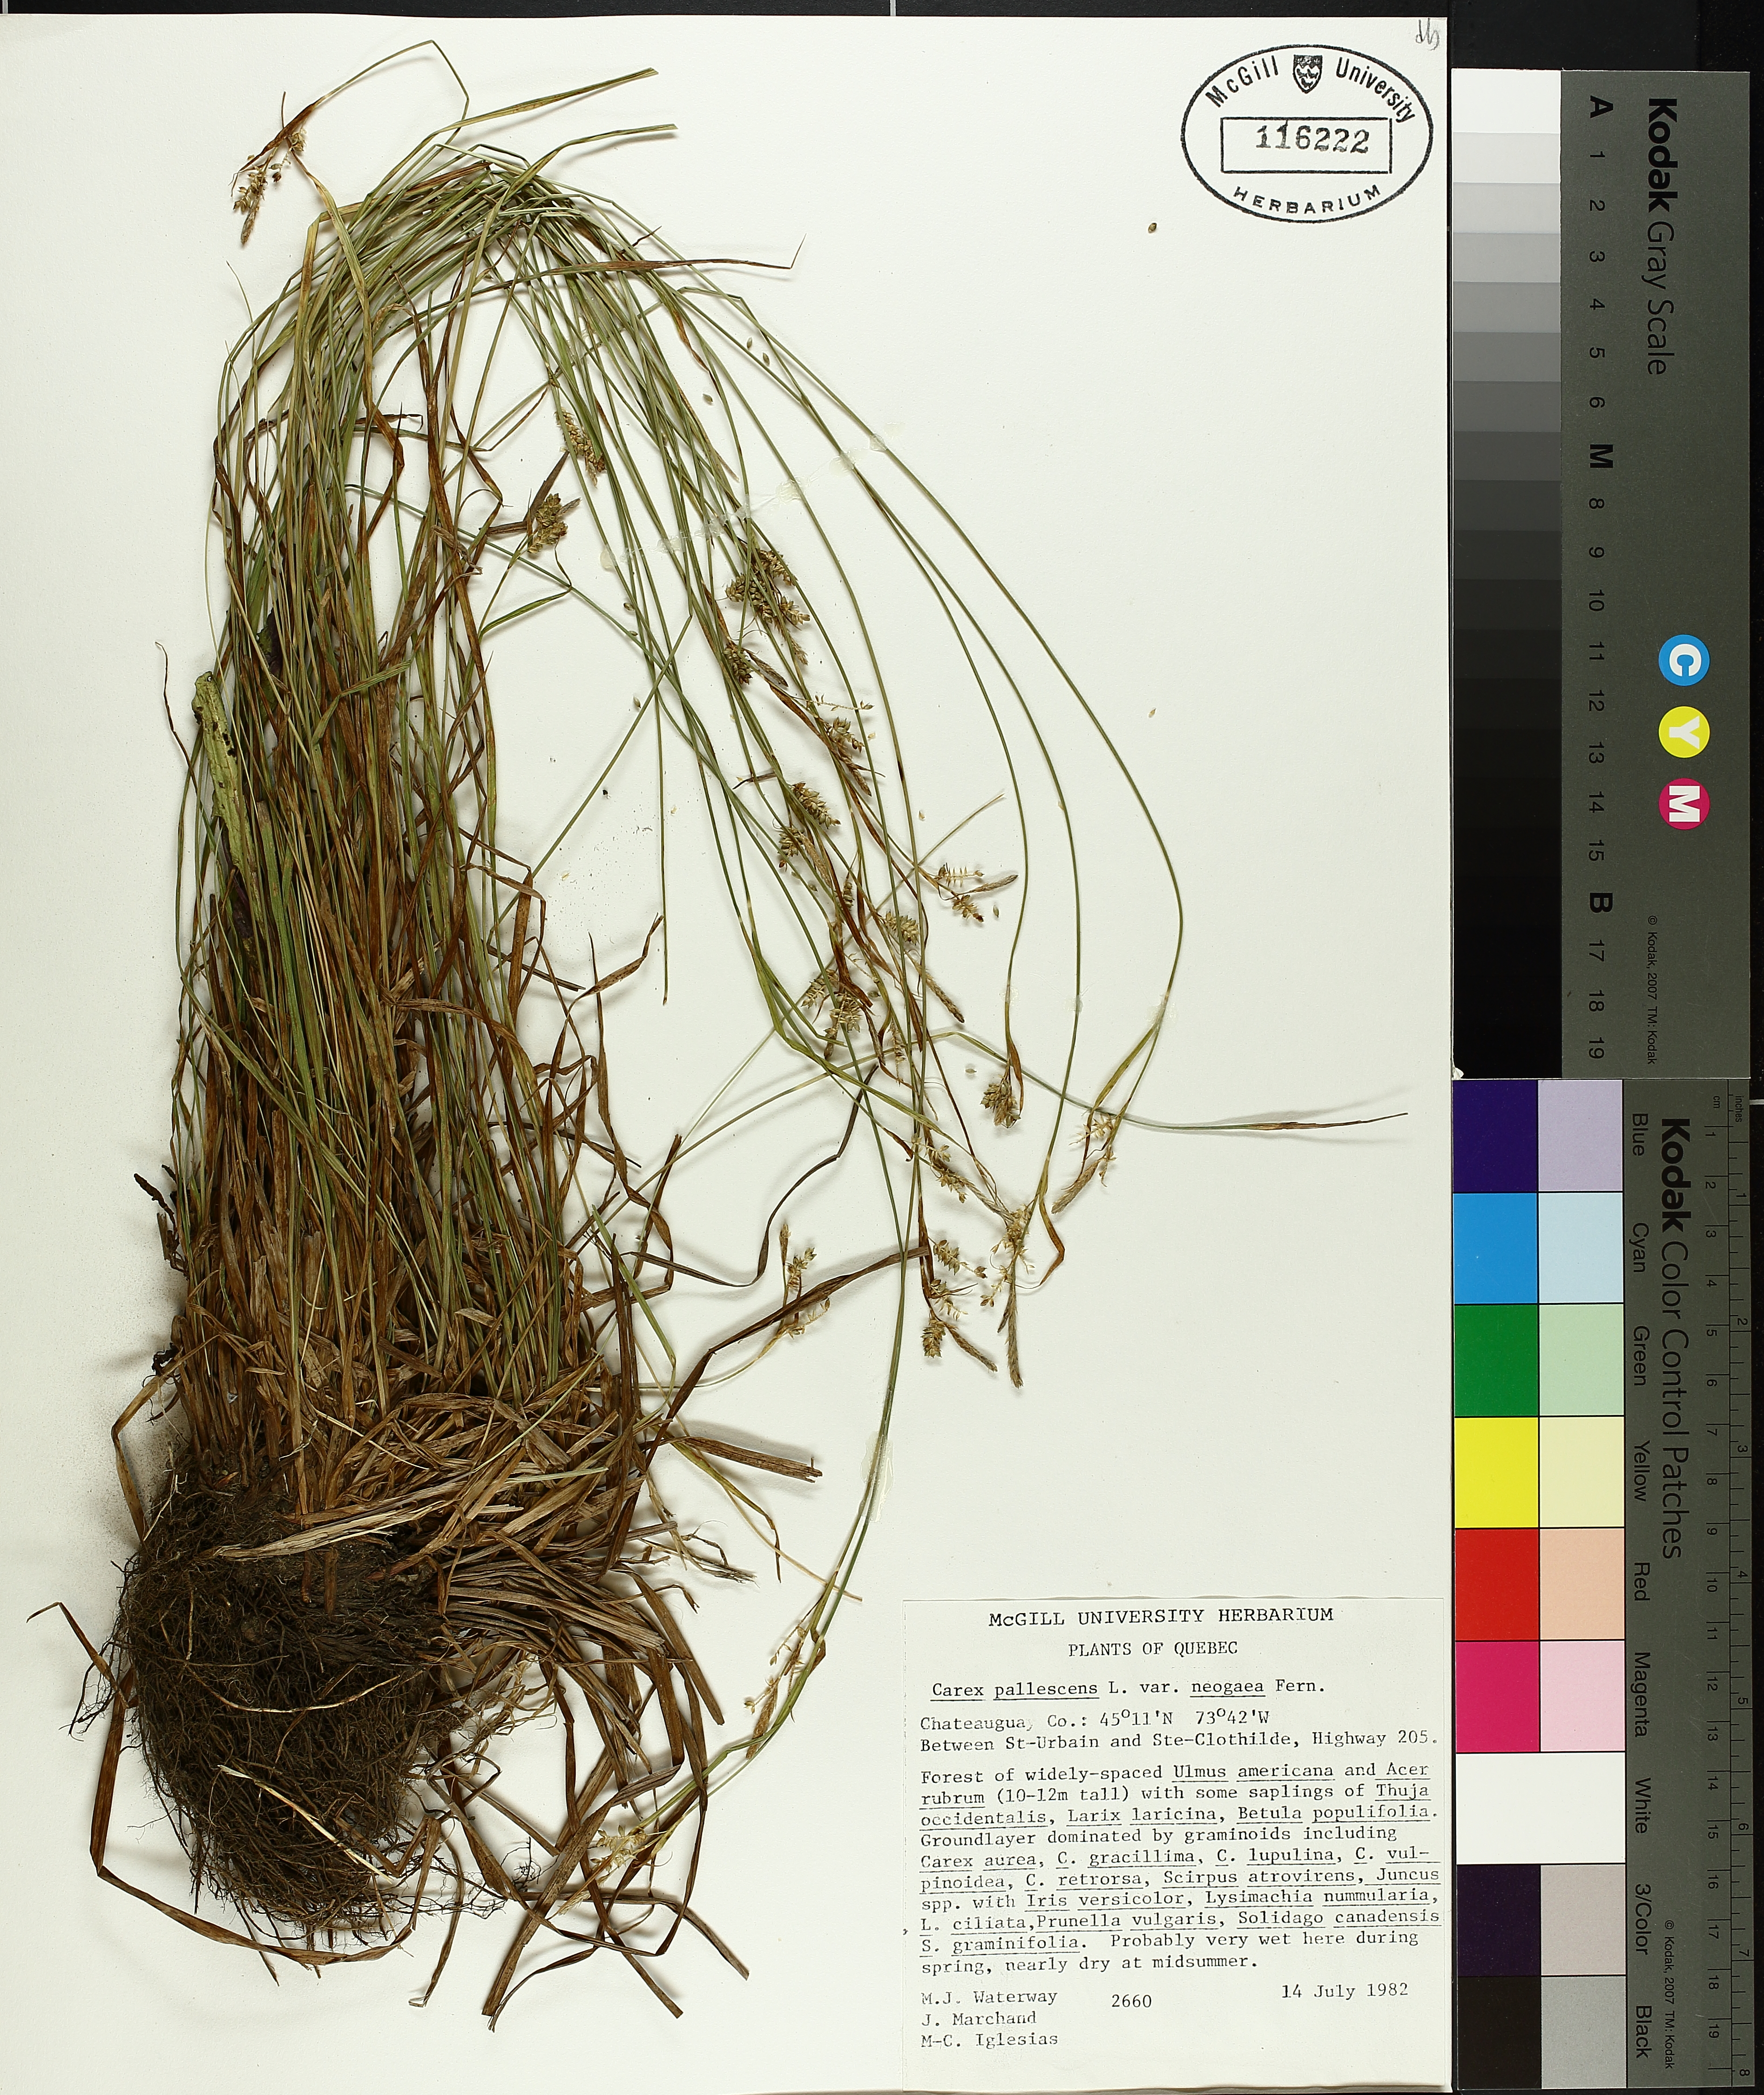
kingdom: Plantae
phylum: Tracheophyta
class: Liliopsida
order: Poales
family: Cyperaceae
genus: Carex
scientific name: Carex pallescens
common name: Pale sedge
